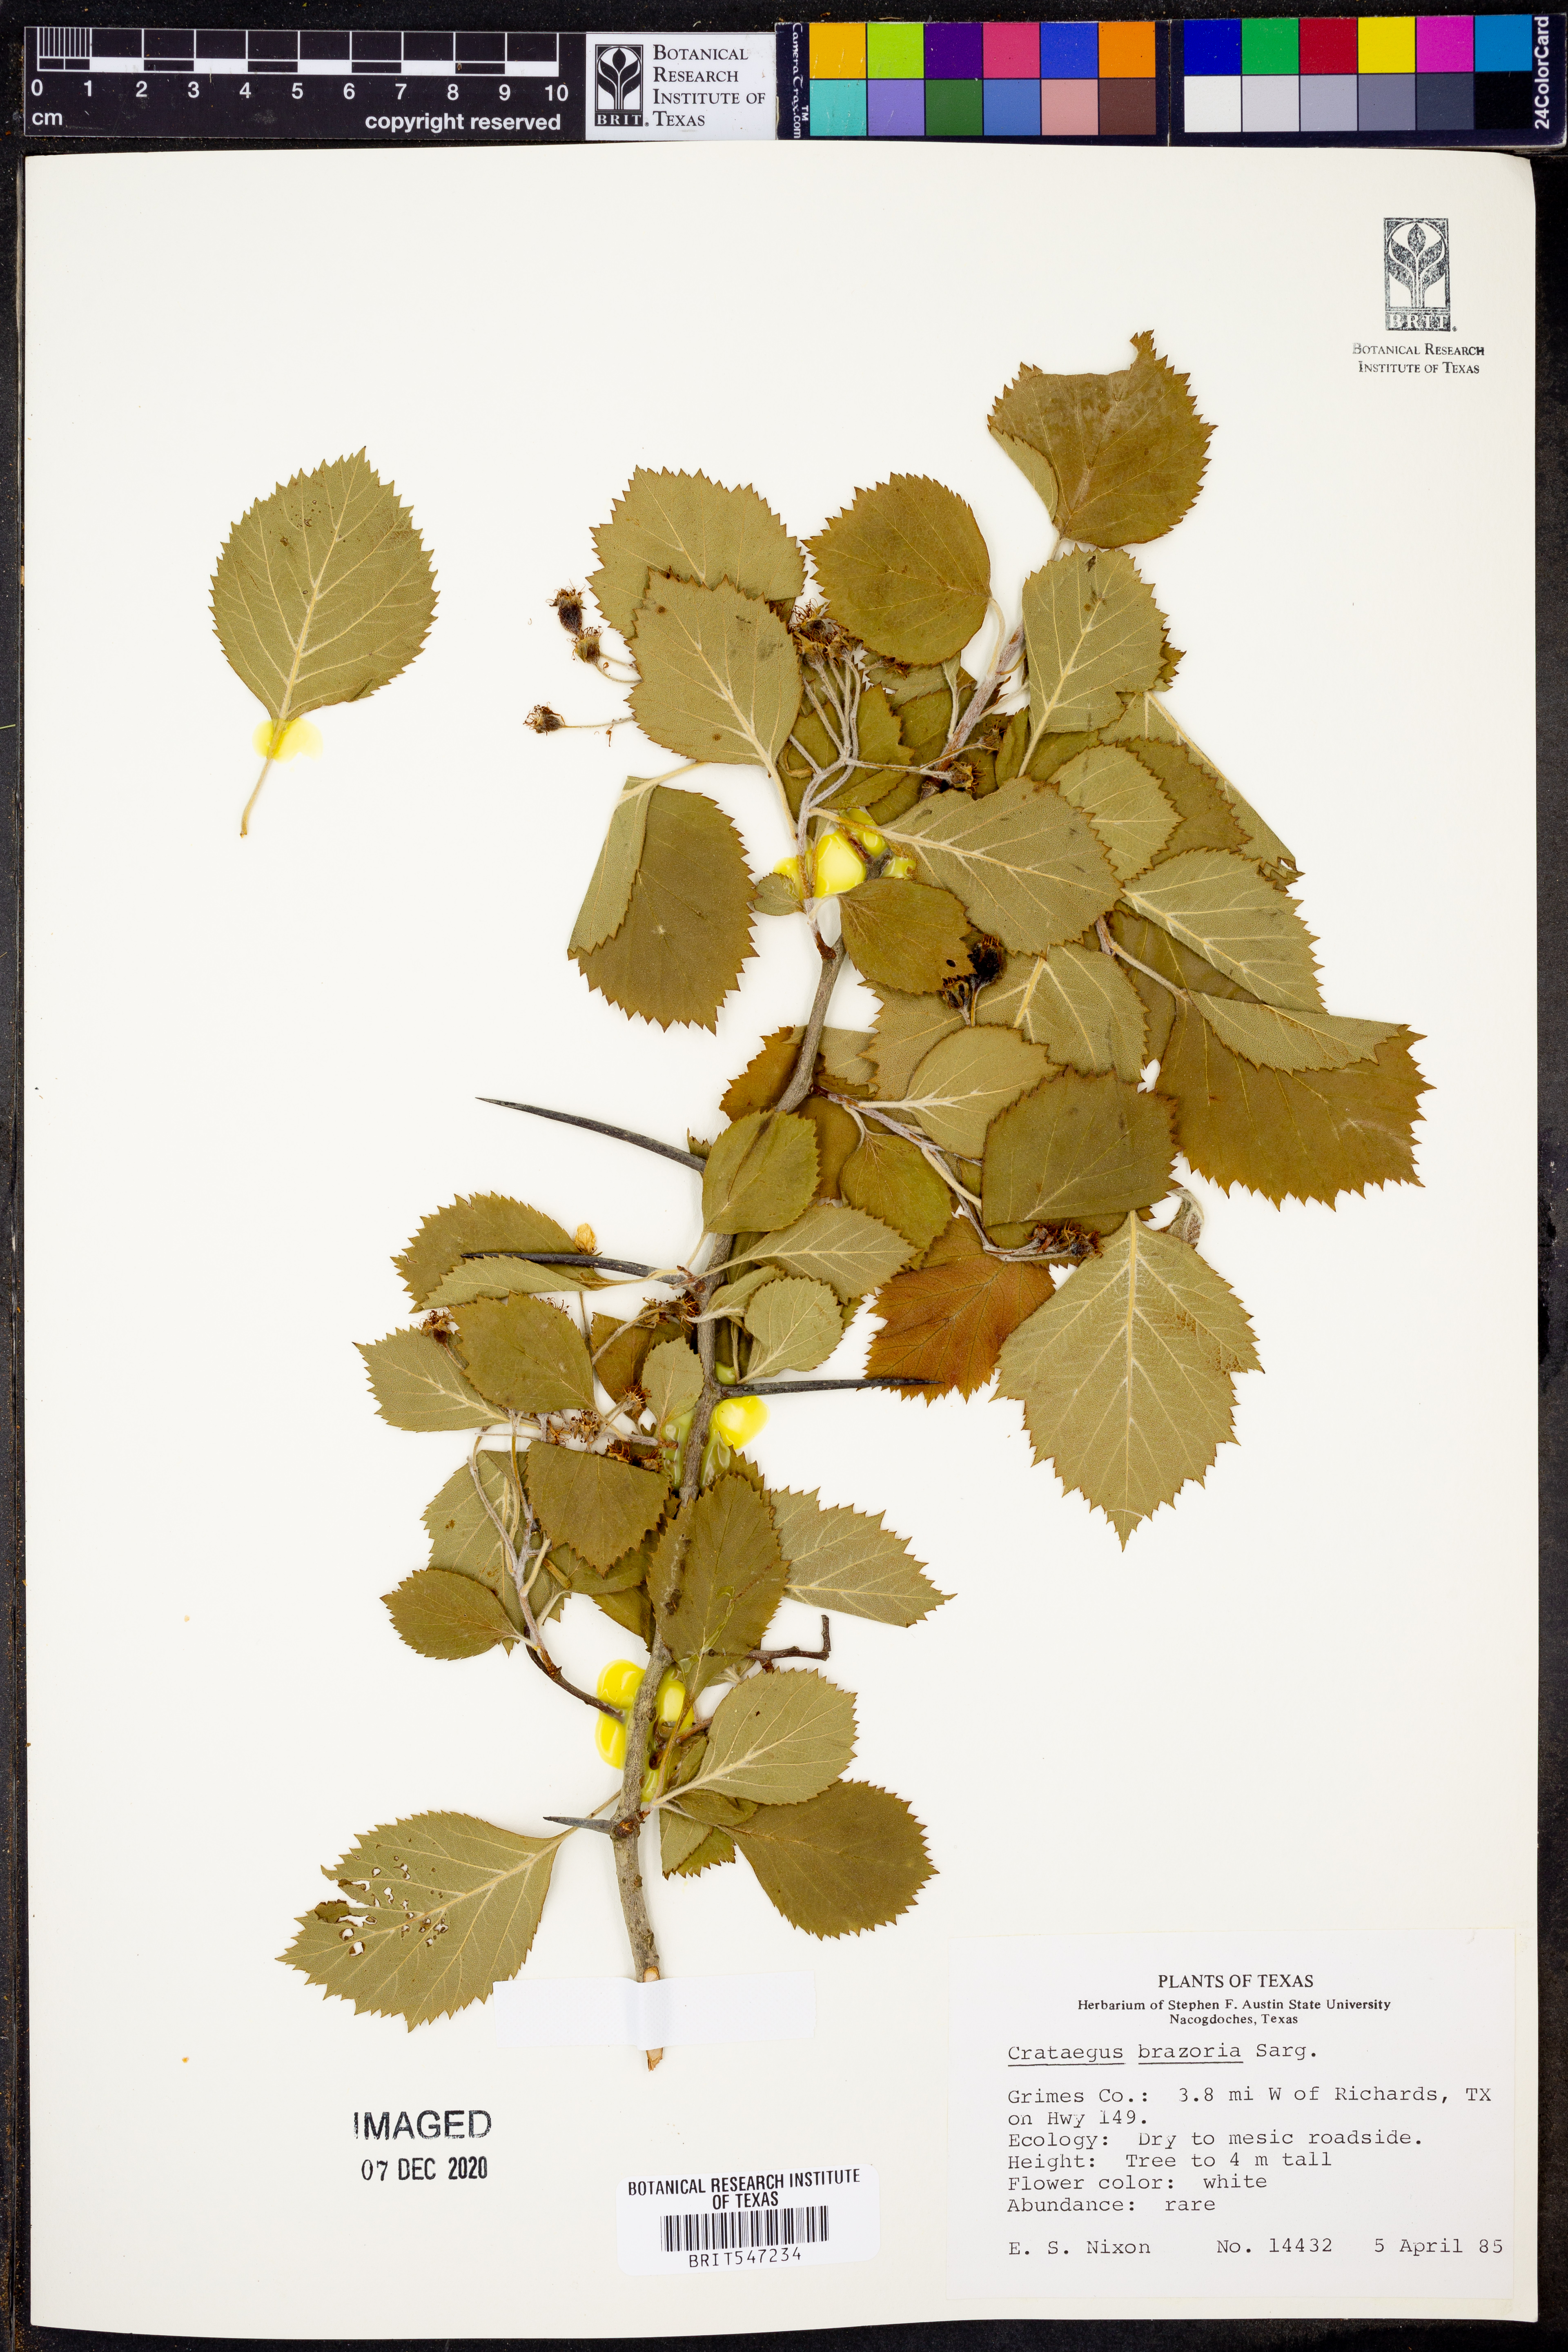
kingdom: Plantae
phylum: Tracheophyta
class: Magnoliopsida
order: Rosales
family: Rosaceae
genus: Crataegus
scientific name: Crataegus brazoria
